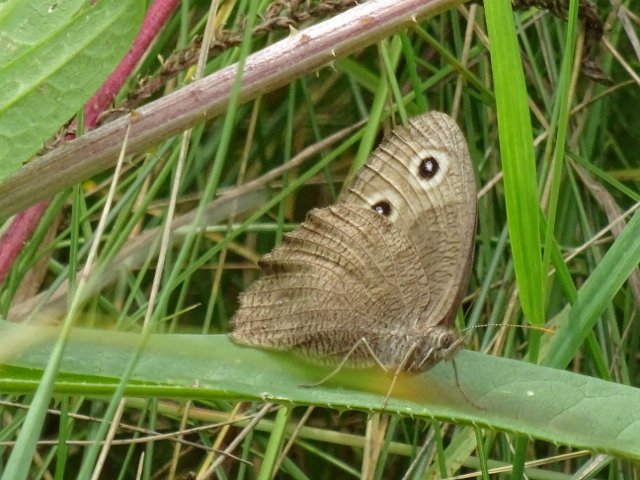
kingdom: Animalia
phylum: Arthropoda
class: Insecta
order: Lepidoptera
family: Nymphalidae
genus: Cercyonis
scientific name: Cercyonis pegala
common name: Common Wood-Nymph
